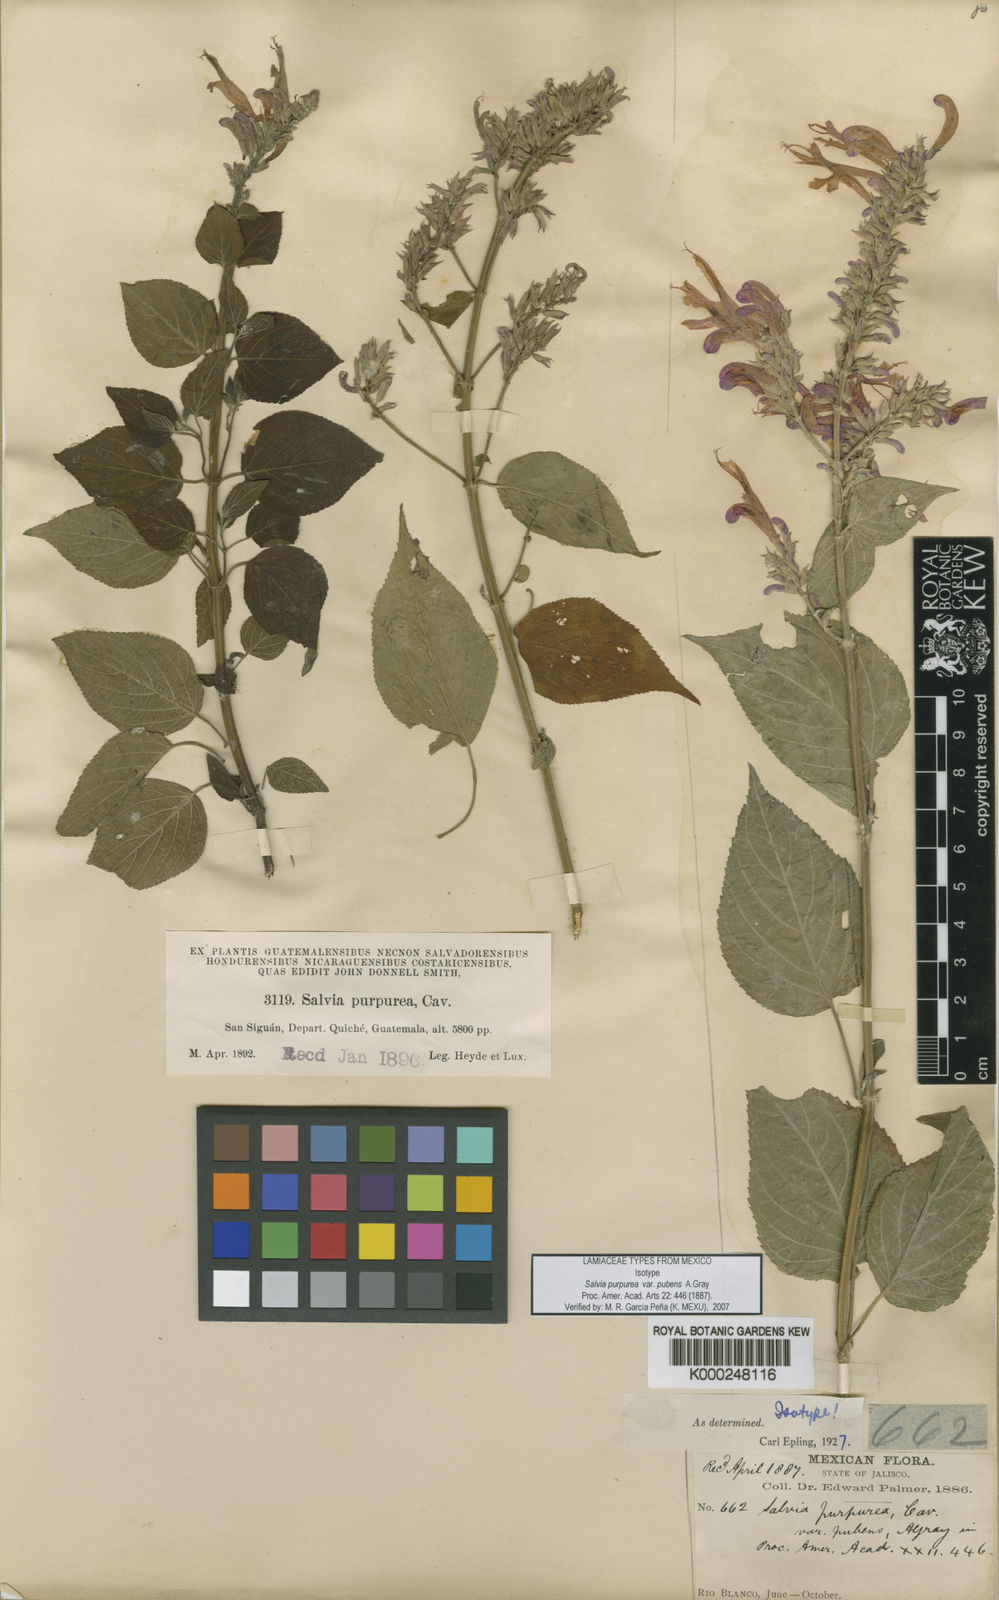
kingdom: Plantae
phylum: Tracheophyta
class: Magnoliopsida
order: Lamiales
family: Lamiaceae
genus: Salvia
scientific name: Salvia purpurea
